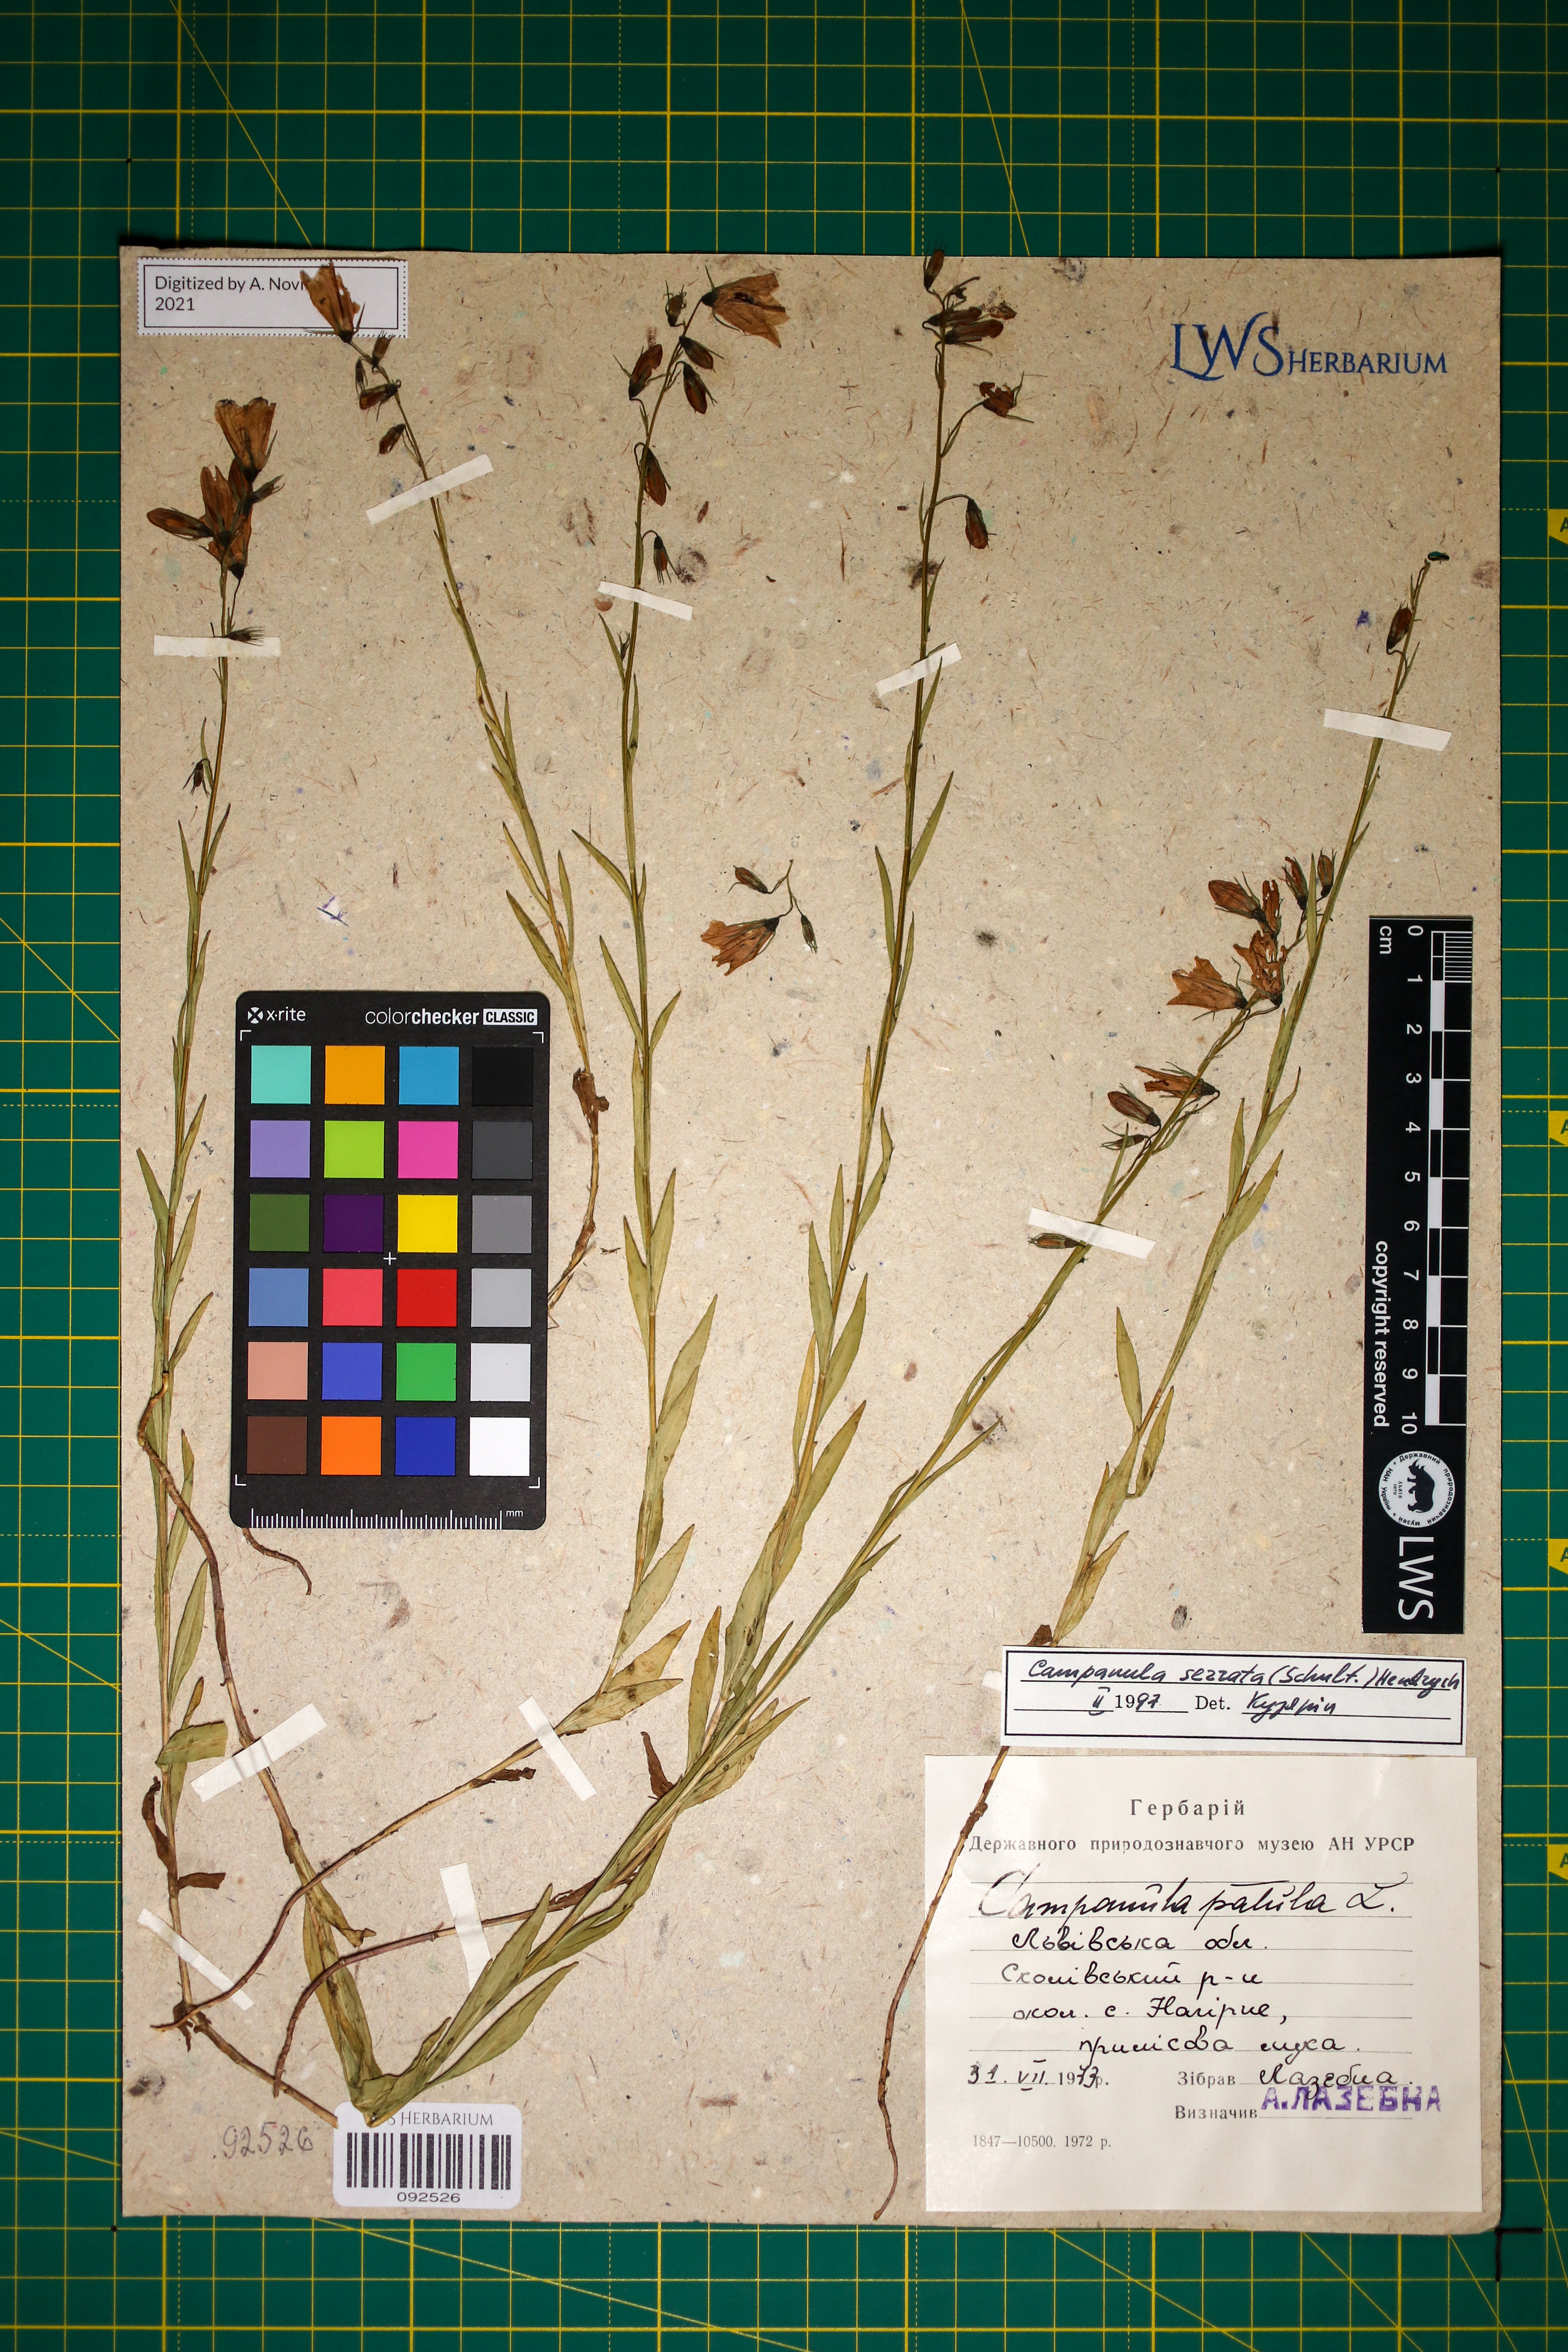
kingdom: Plantae
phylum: Tracheophyta
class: Magnoliopsida
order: Asterales
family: Campanulaceae
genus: Campanula
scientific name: Campanula serrata
